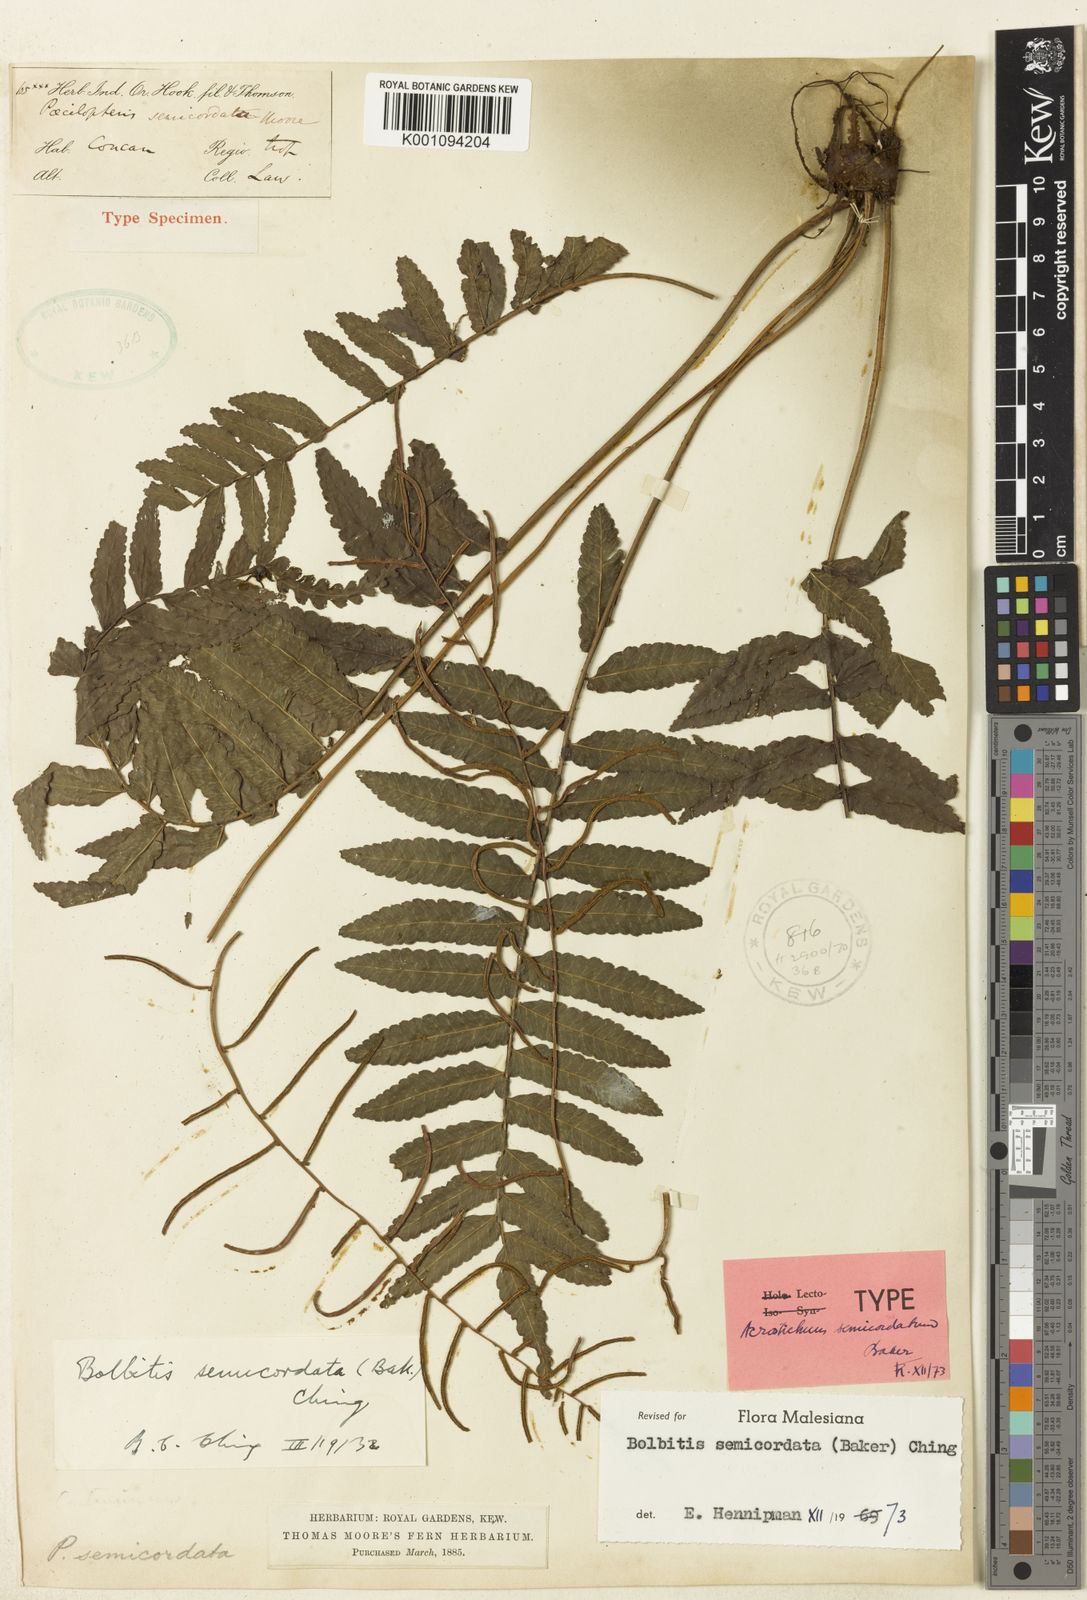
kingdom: Plantae
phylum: Tracheophyta
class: Polypodiopsida
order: Polypodiales
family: Dryopteridaceae
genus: Bolbitis
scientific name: Bolbitis semicordata
